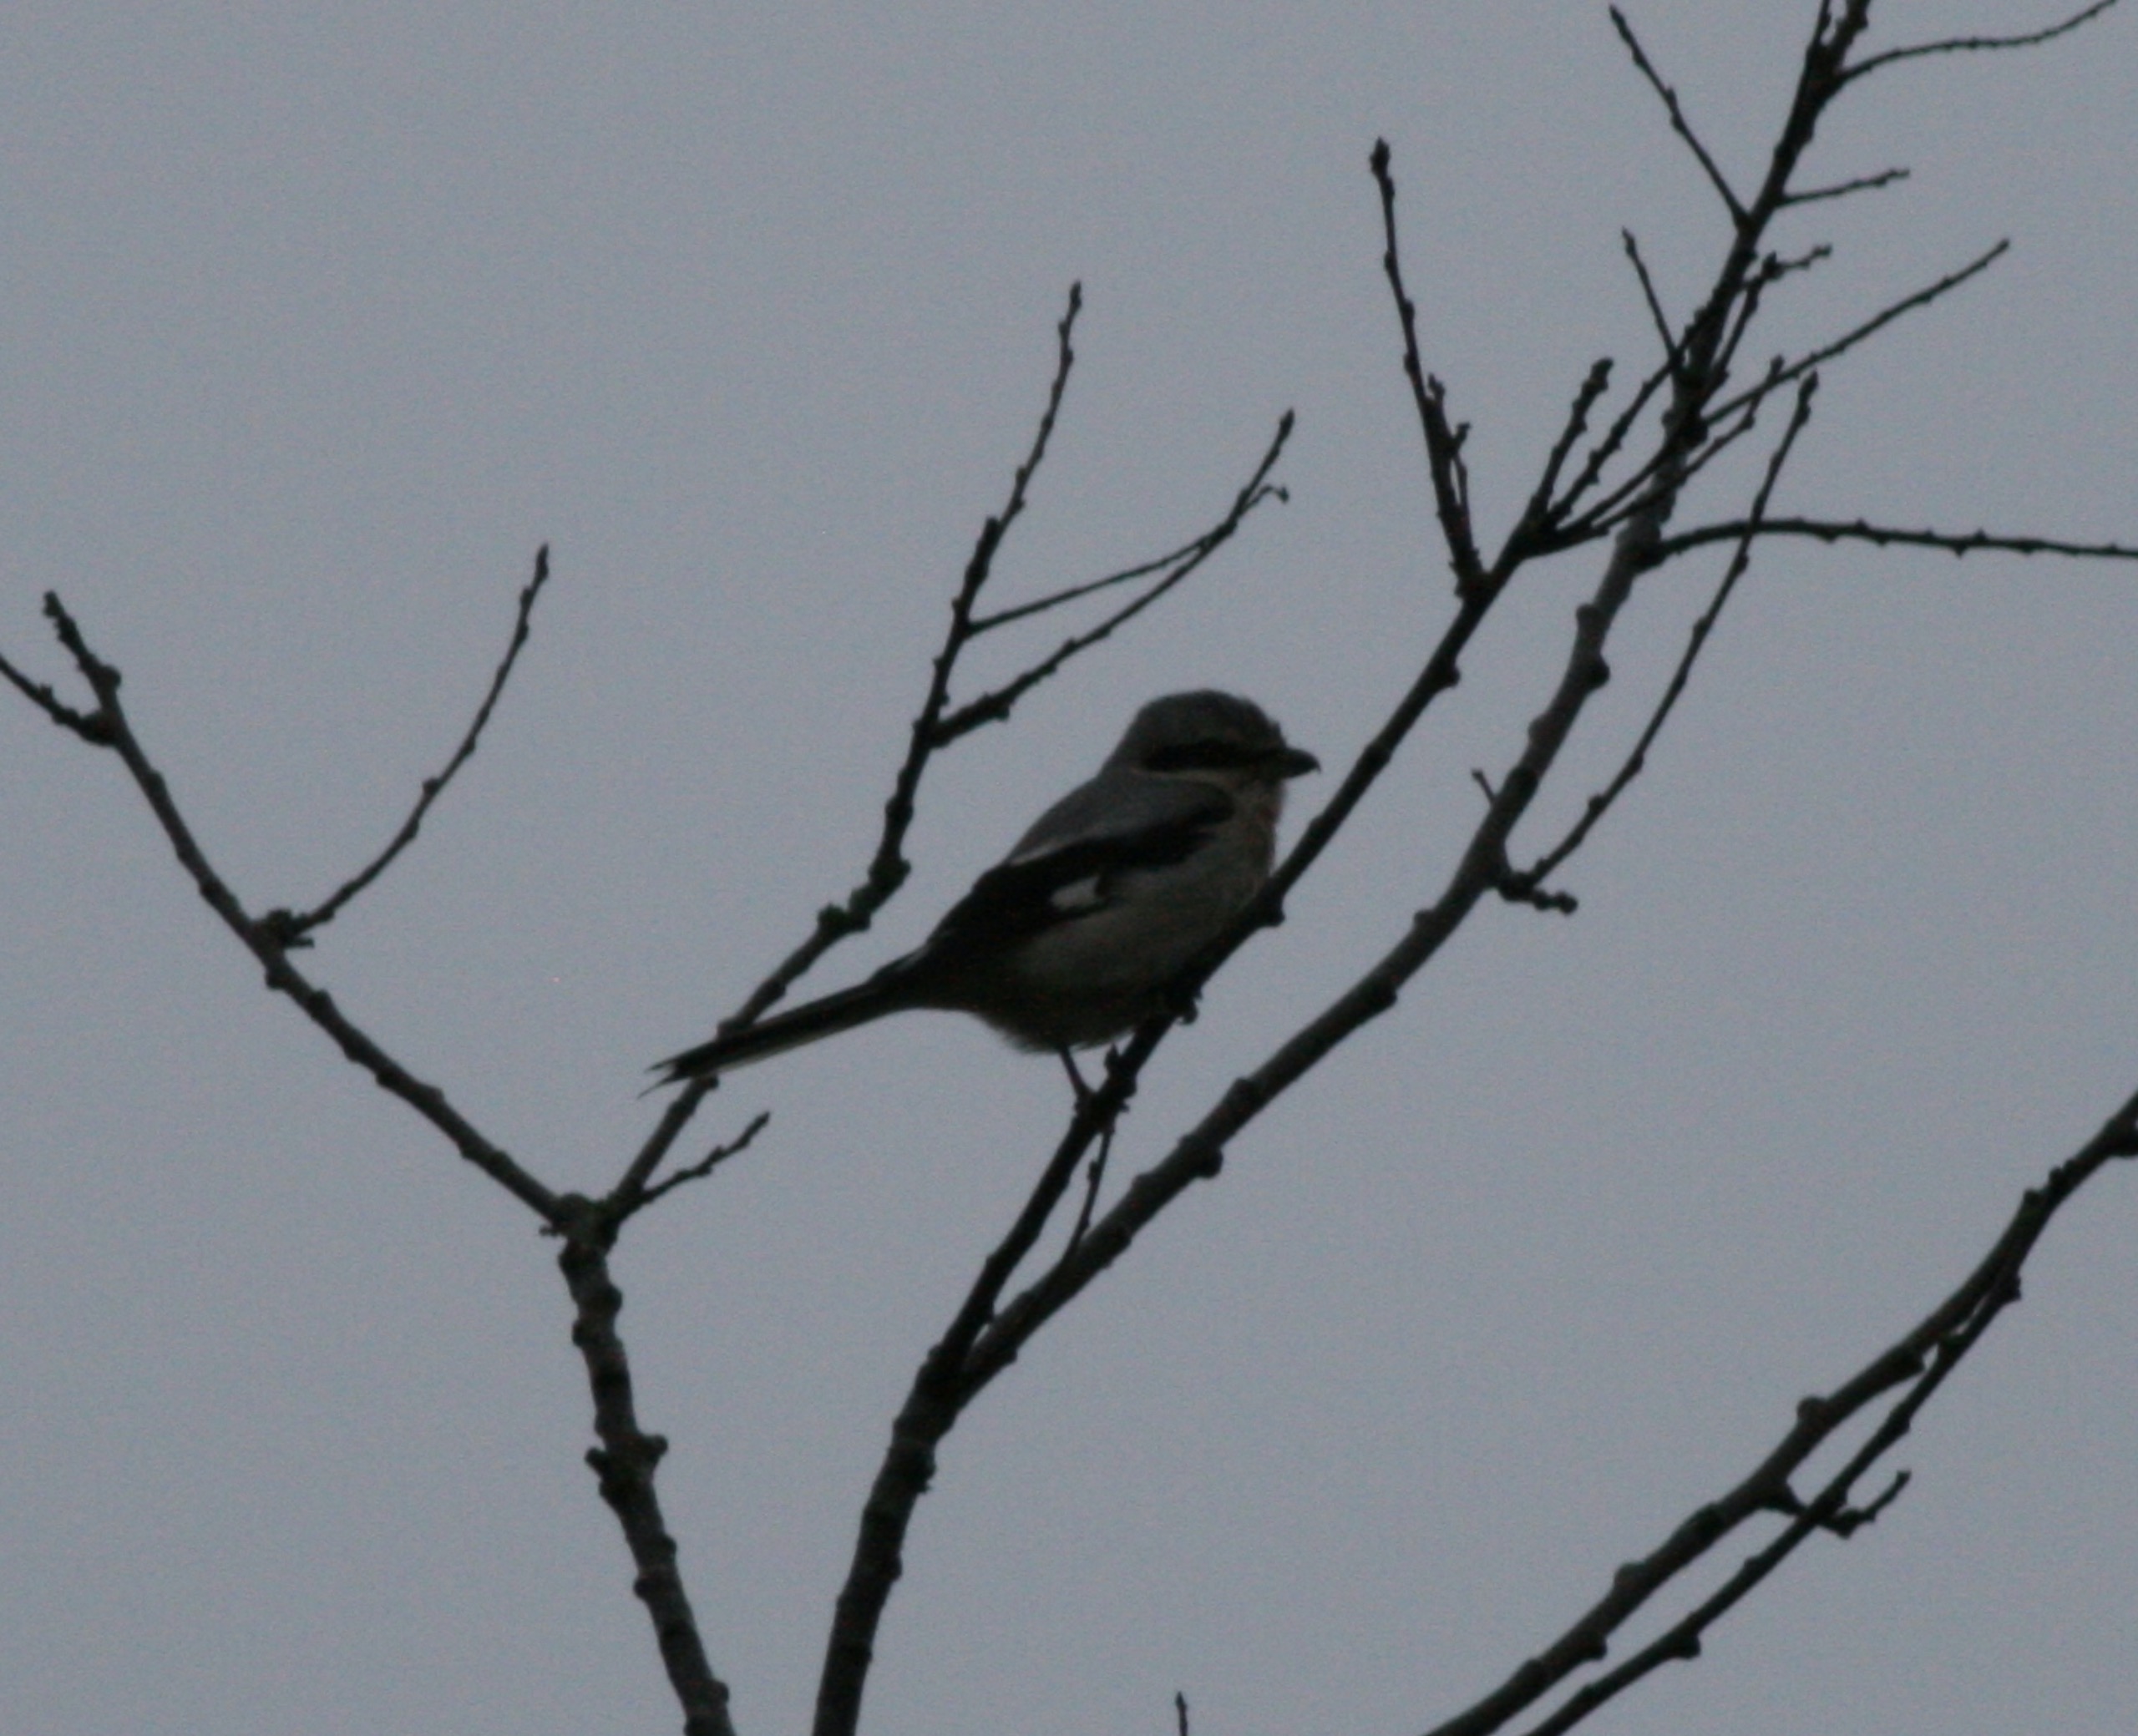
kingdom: Animalia
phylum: Chordata
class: Aves
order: Passeriformes
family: Laniidae
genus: Lanius
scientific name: Lanius excubitor
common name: Stor tornskade
